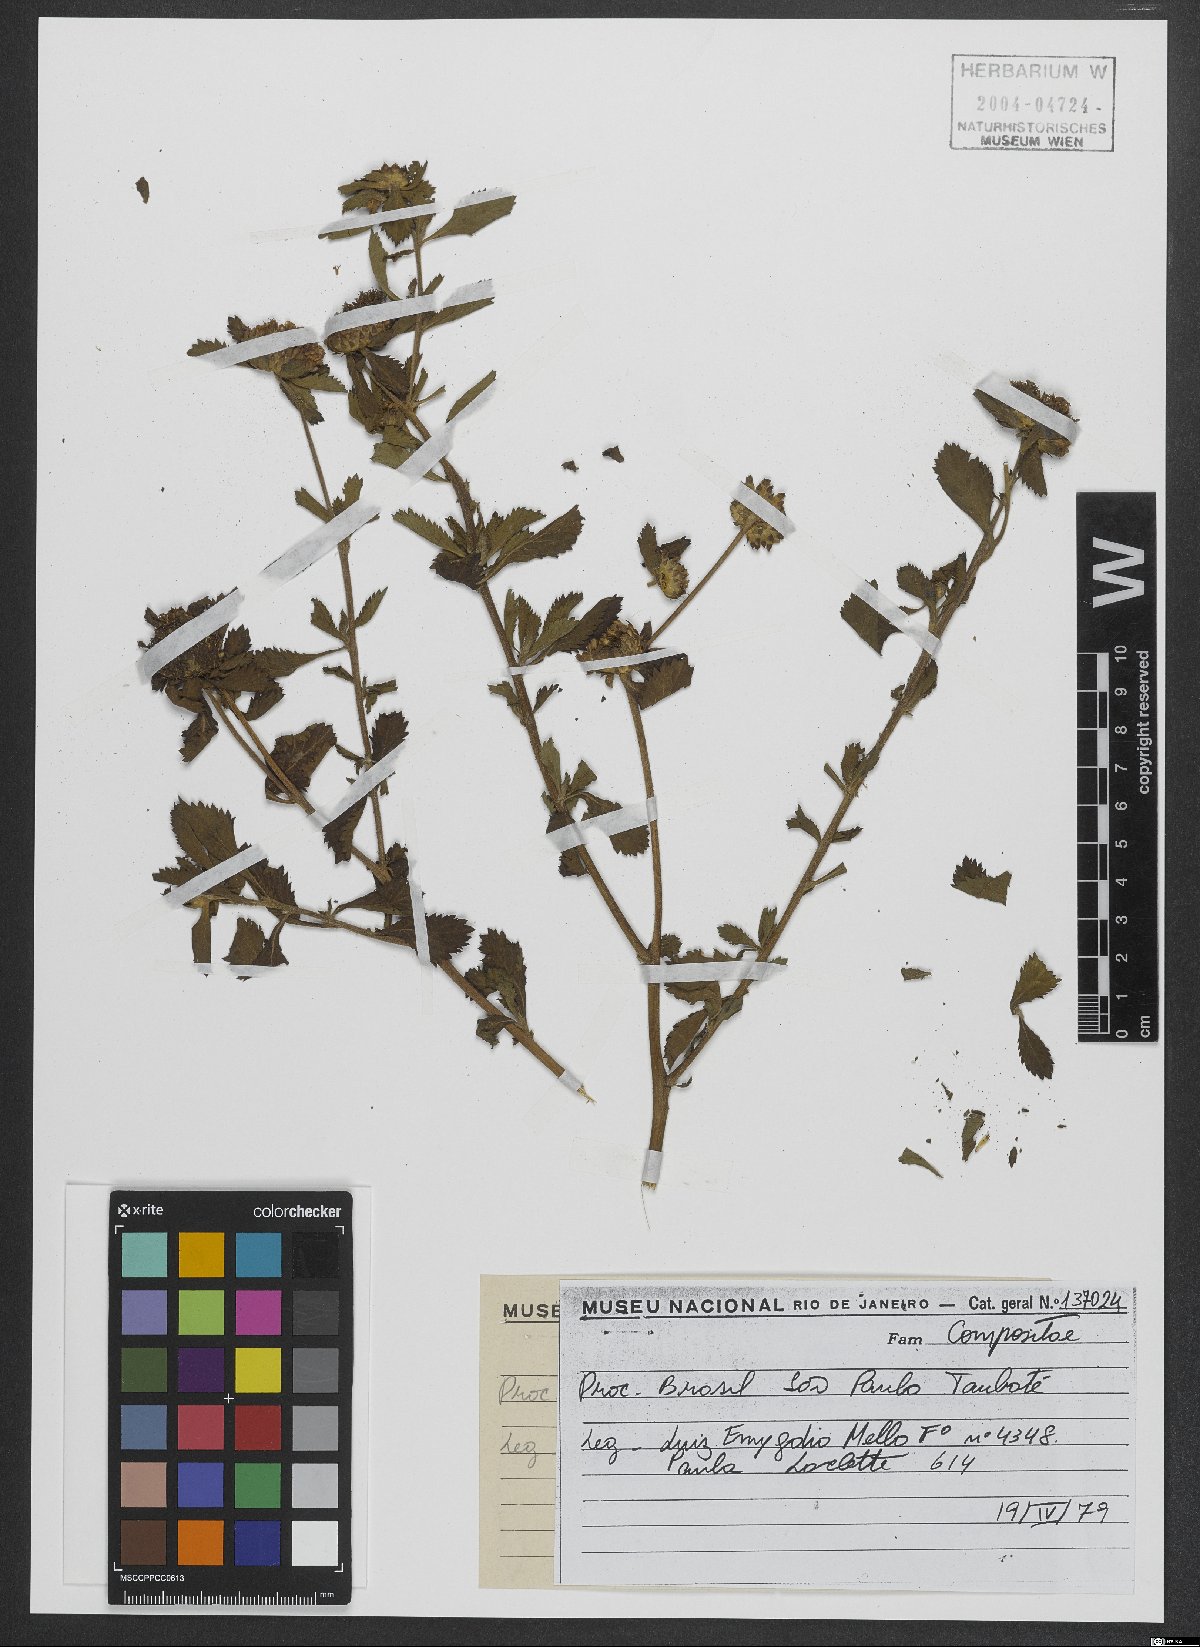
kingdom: Plantae
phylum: Tracheophyta
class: Magnoliopsida
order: Asterales
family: Asteraceae
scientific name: Asteraceae
